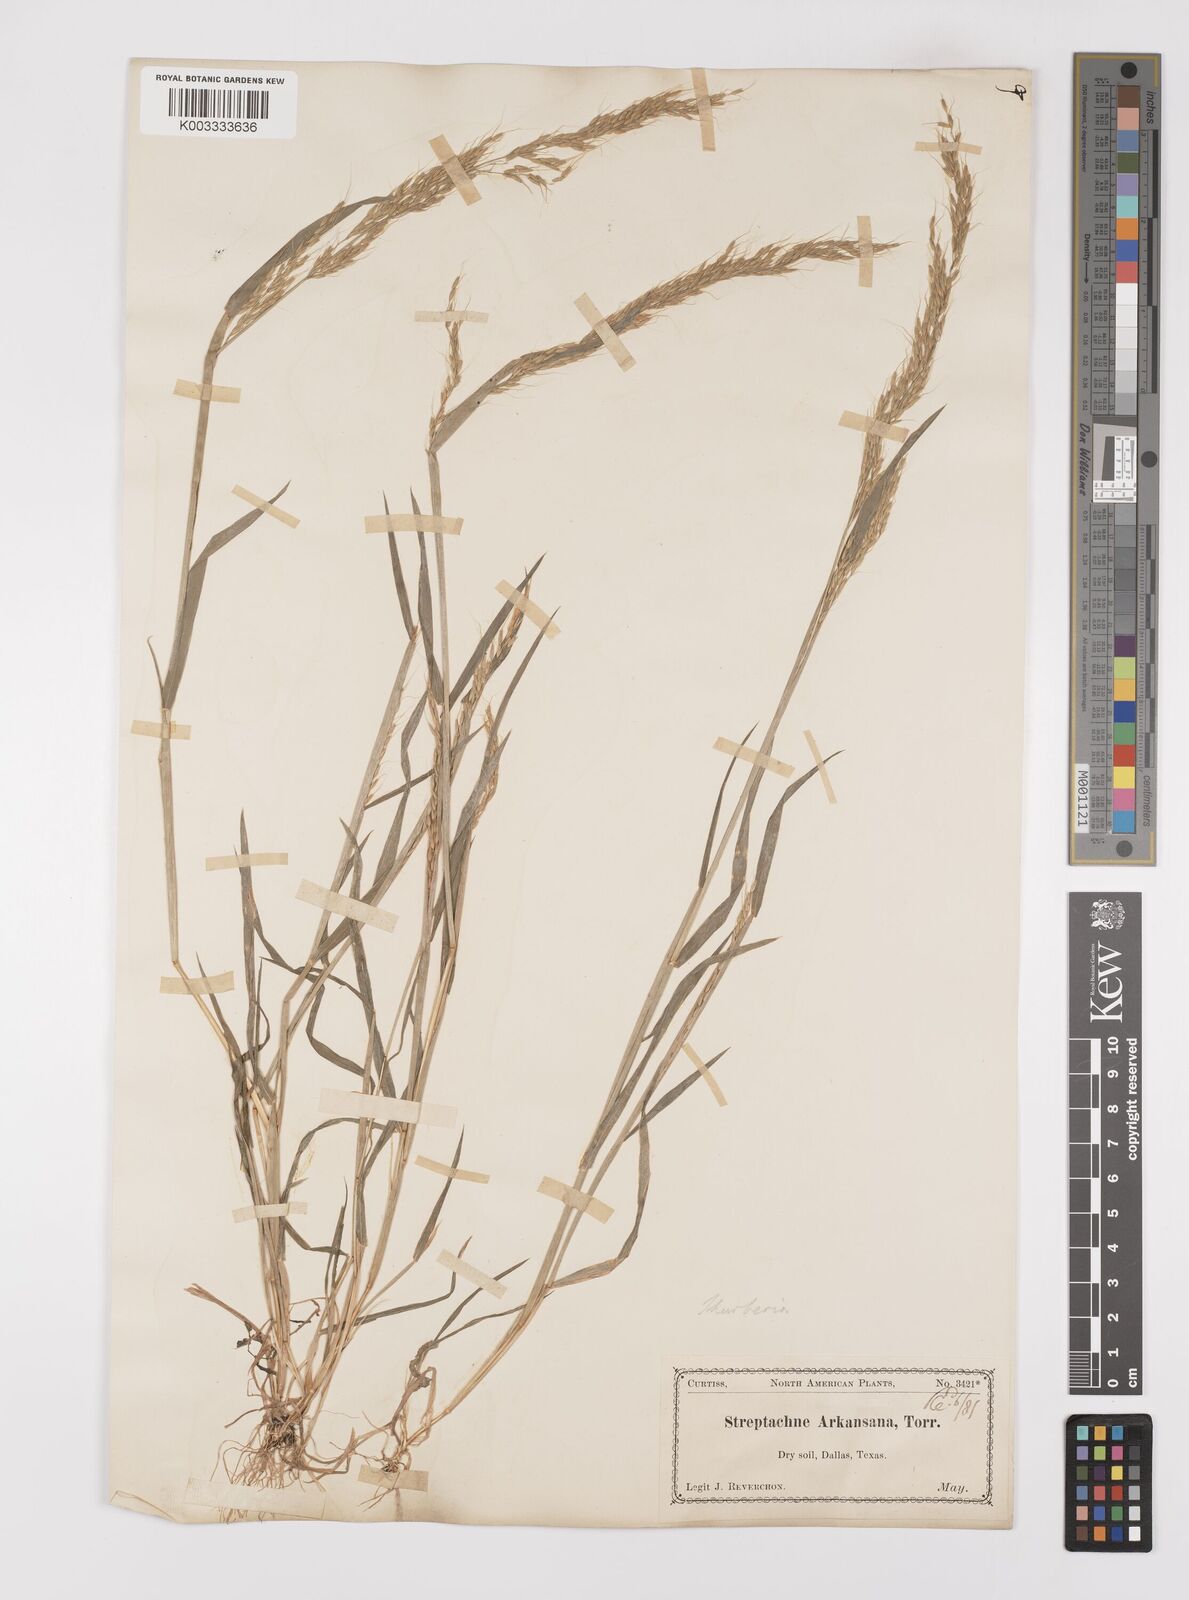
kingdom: Plantae
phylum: Tracheophyta
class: Liliopsida
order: Poales
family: Poaceae
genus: Limnodea
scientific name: Limnodea arkansana
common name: Ozark-grass
